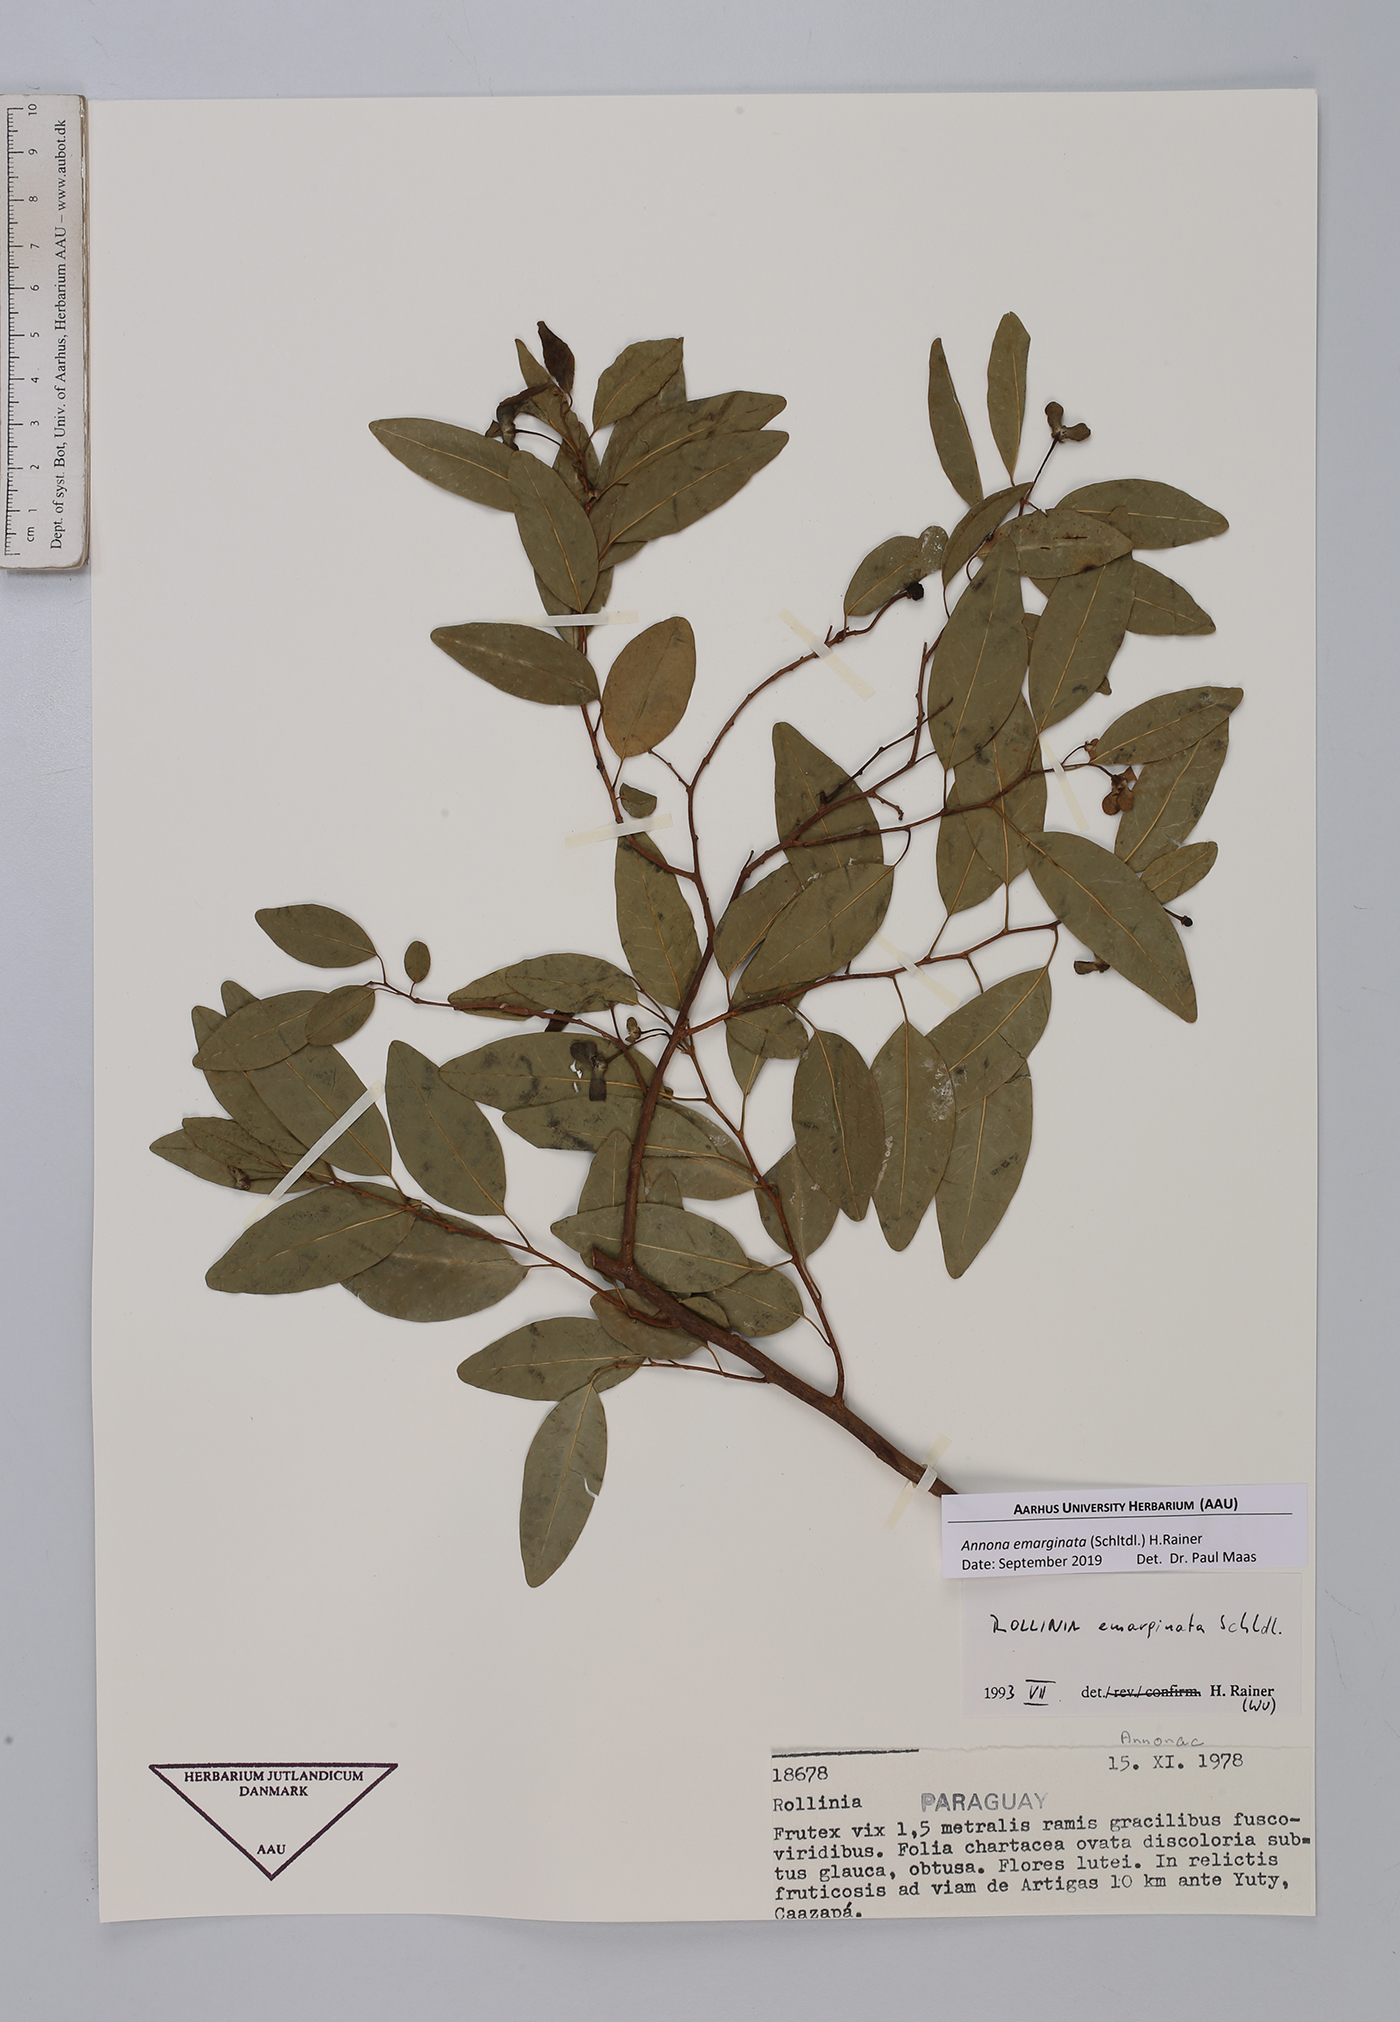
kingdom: Plantae
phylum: Tracheophyta
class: Magnoliopsida
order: Magnoliales
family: Annonaceae
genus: Annona
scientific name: Annona emarginata
